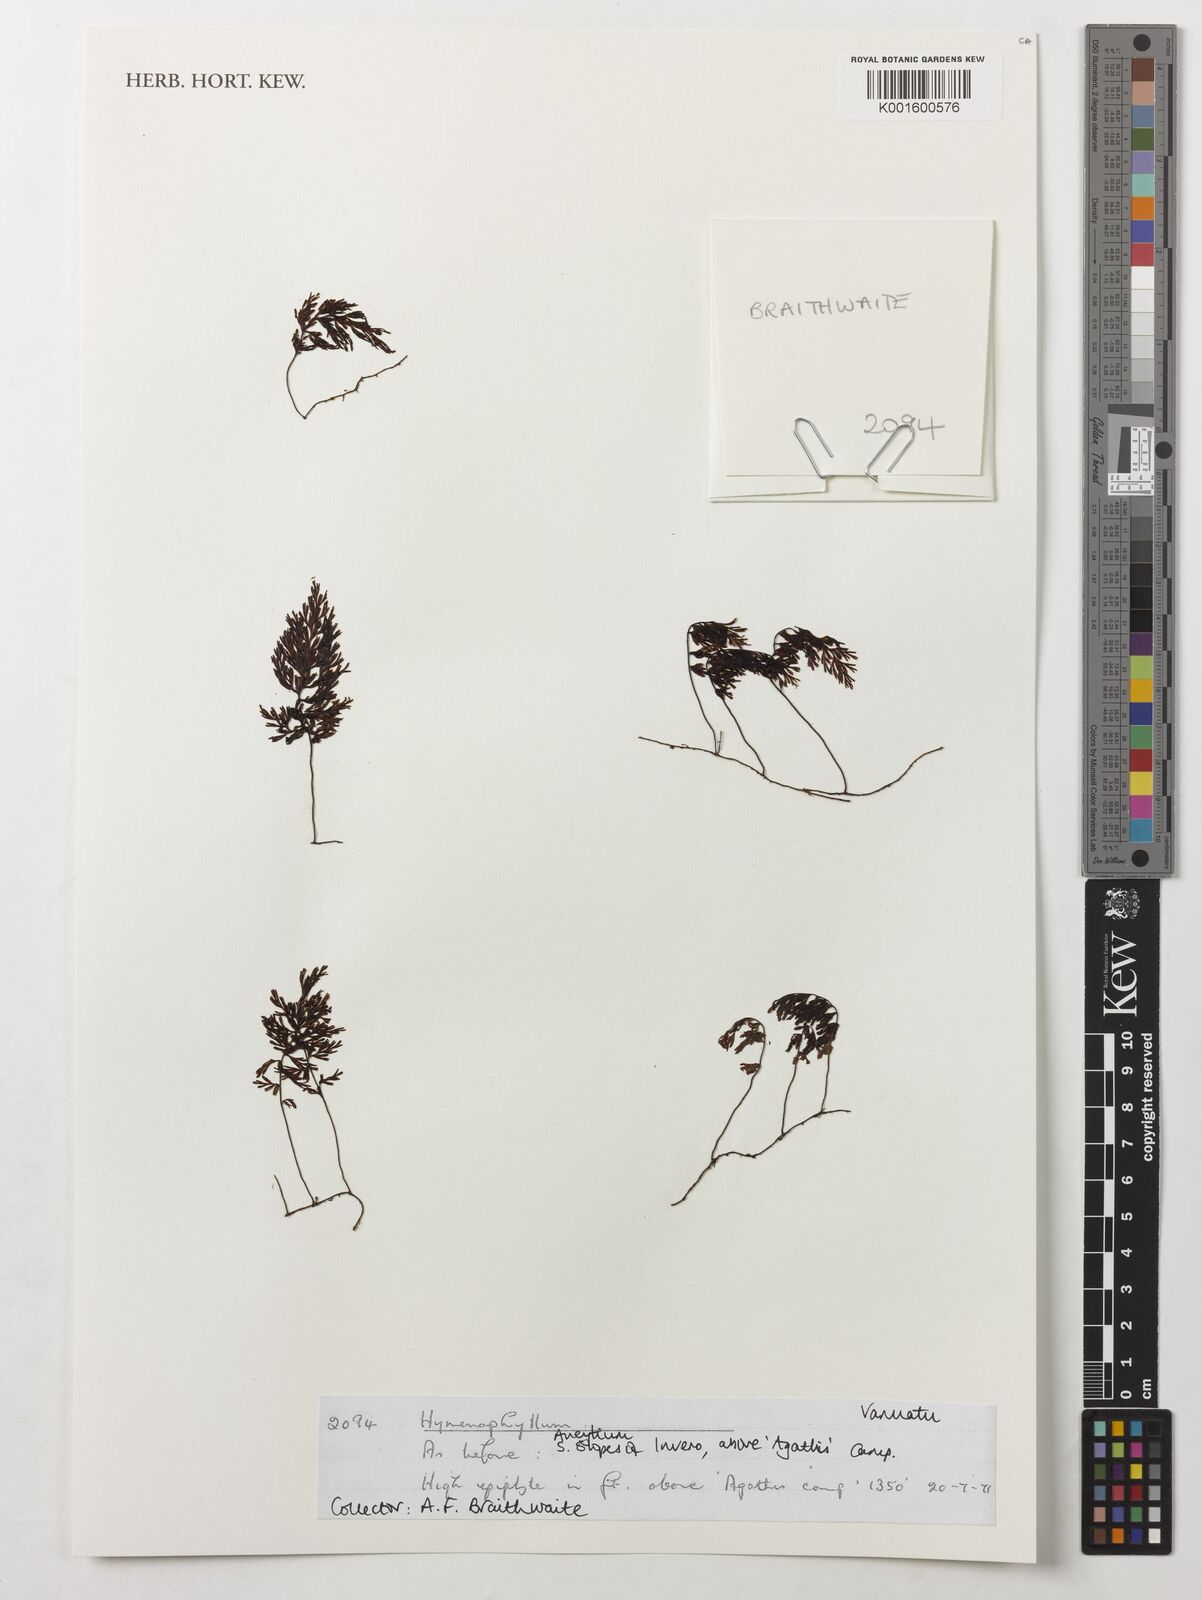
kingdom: Plantae
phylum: Tracheophyta
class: Polypodiopsida
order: Hymenophyllales
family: Hymenophyllaceae
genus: Hymenophyllum
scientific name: Hymenophyllum
